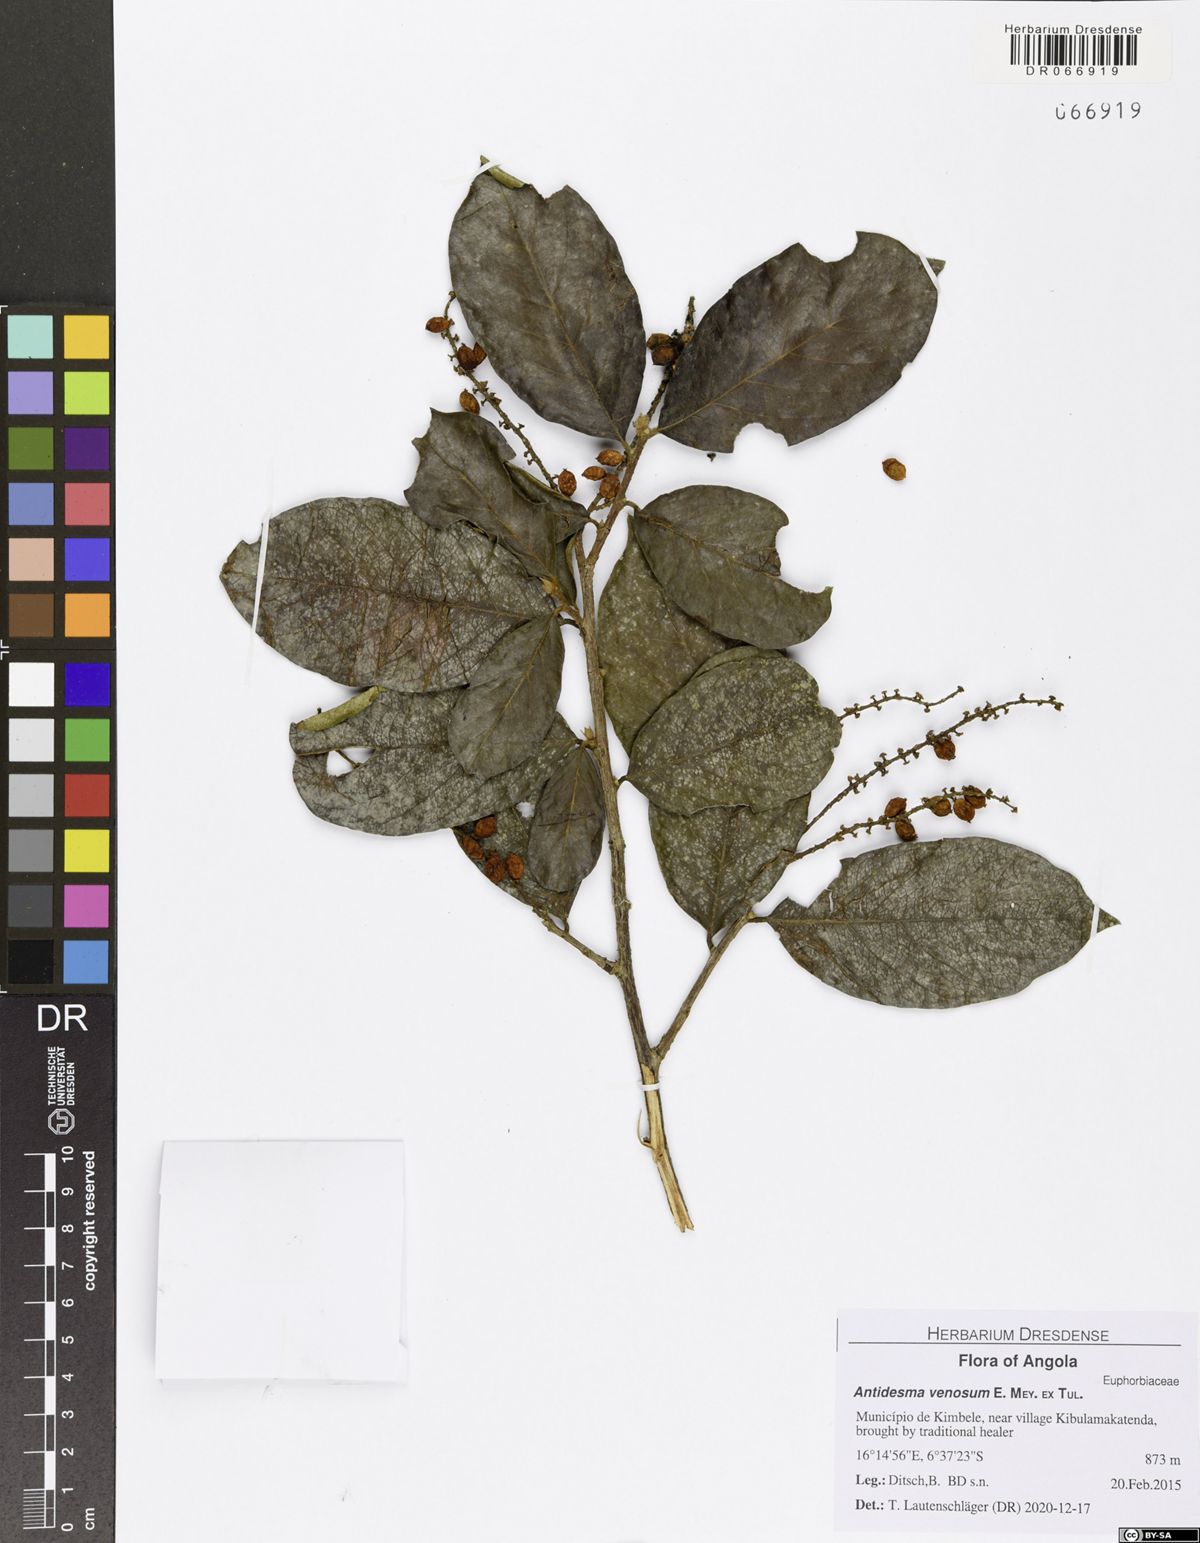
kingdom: Plantae
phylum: Tracheophyta
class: Magnoliopsida
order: Malpighiales
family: Phyllanthaceae
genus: Antidesma
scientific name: Antidesma venosum
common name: Tassel-berry
